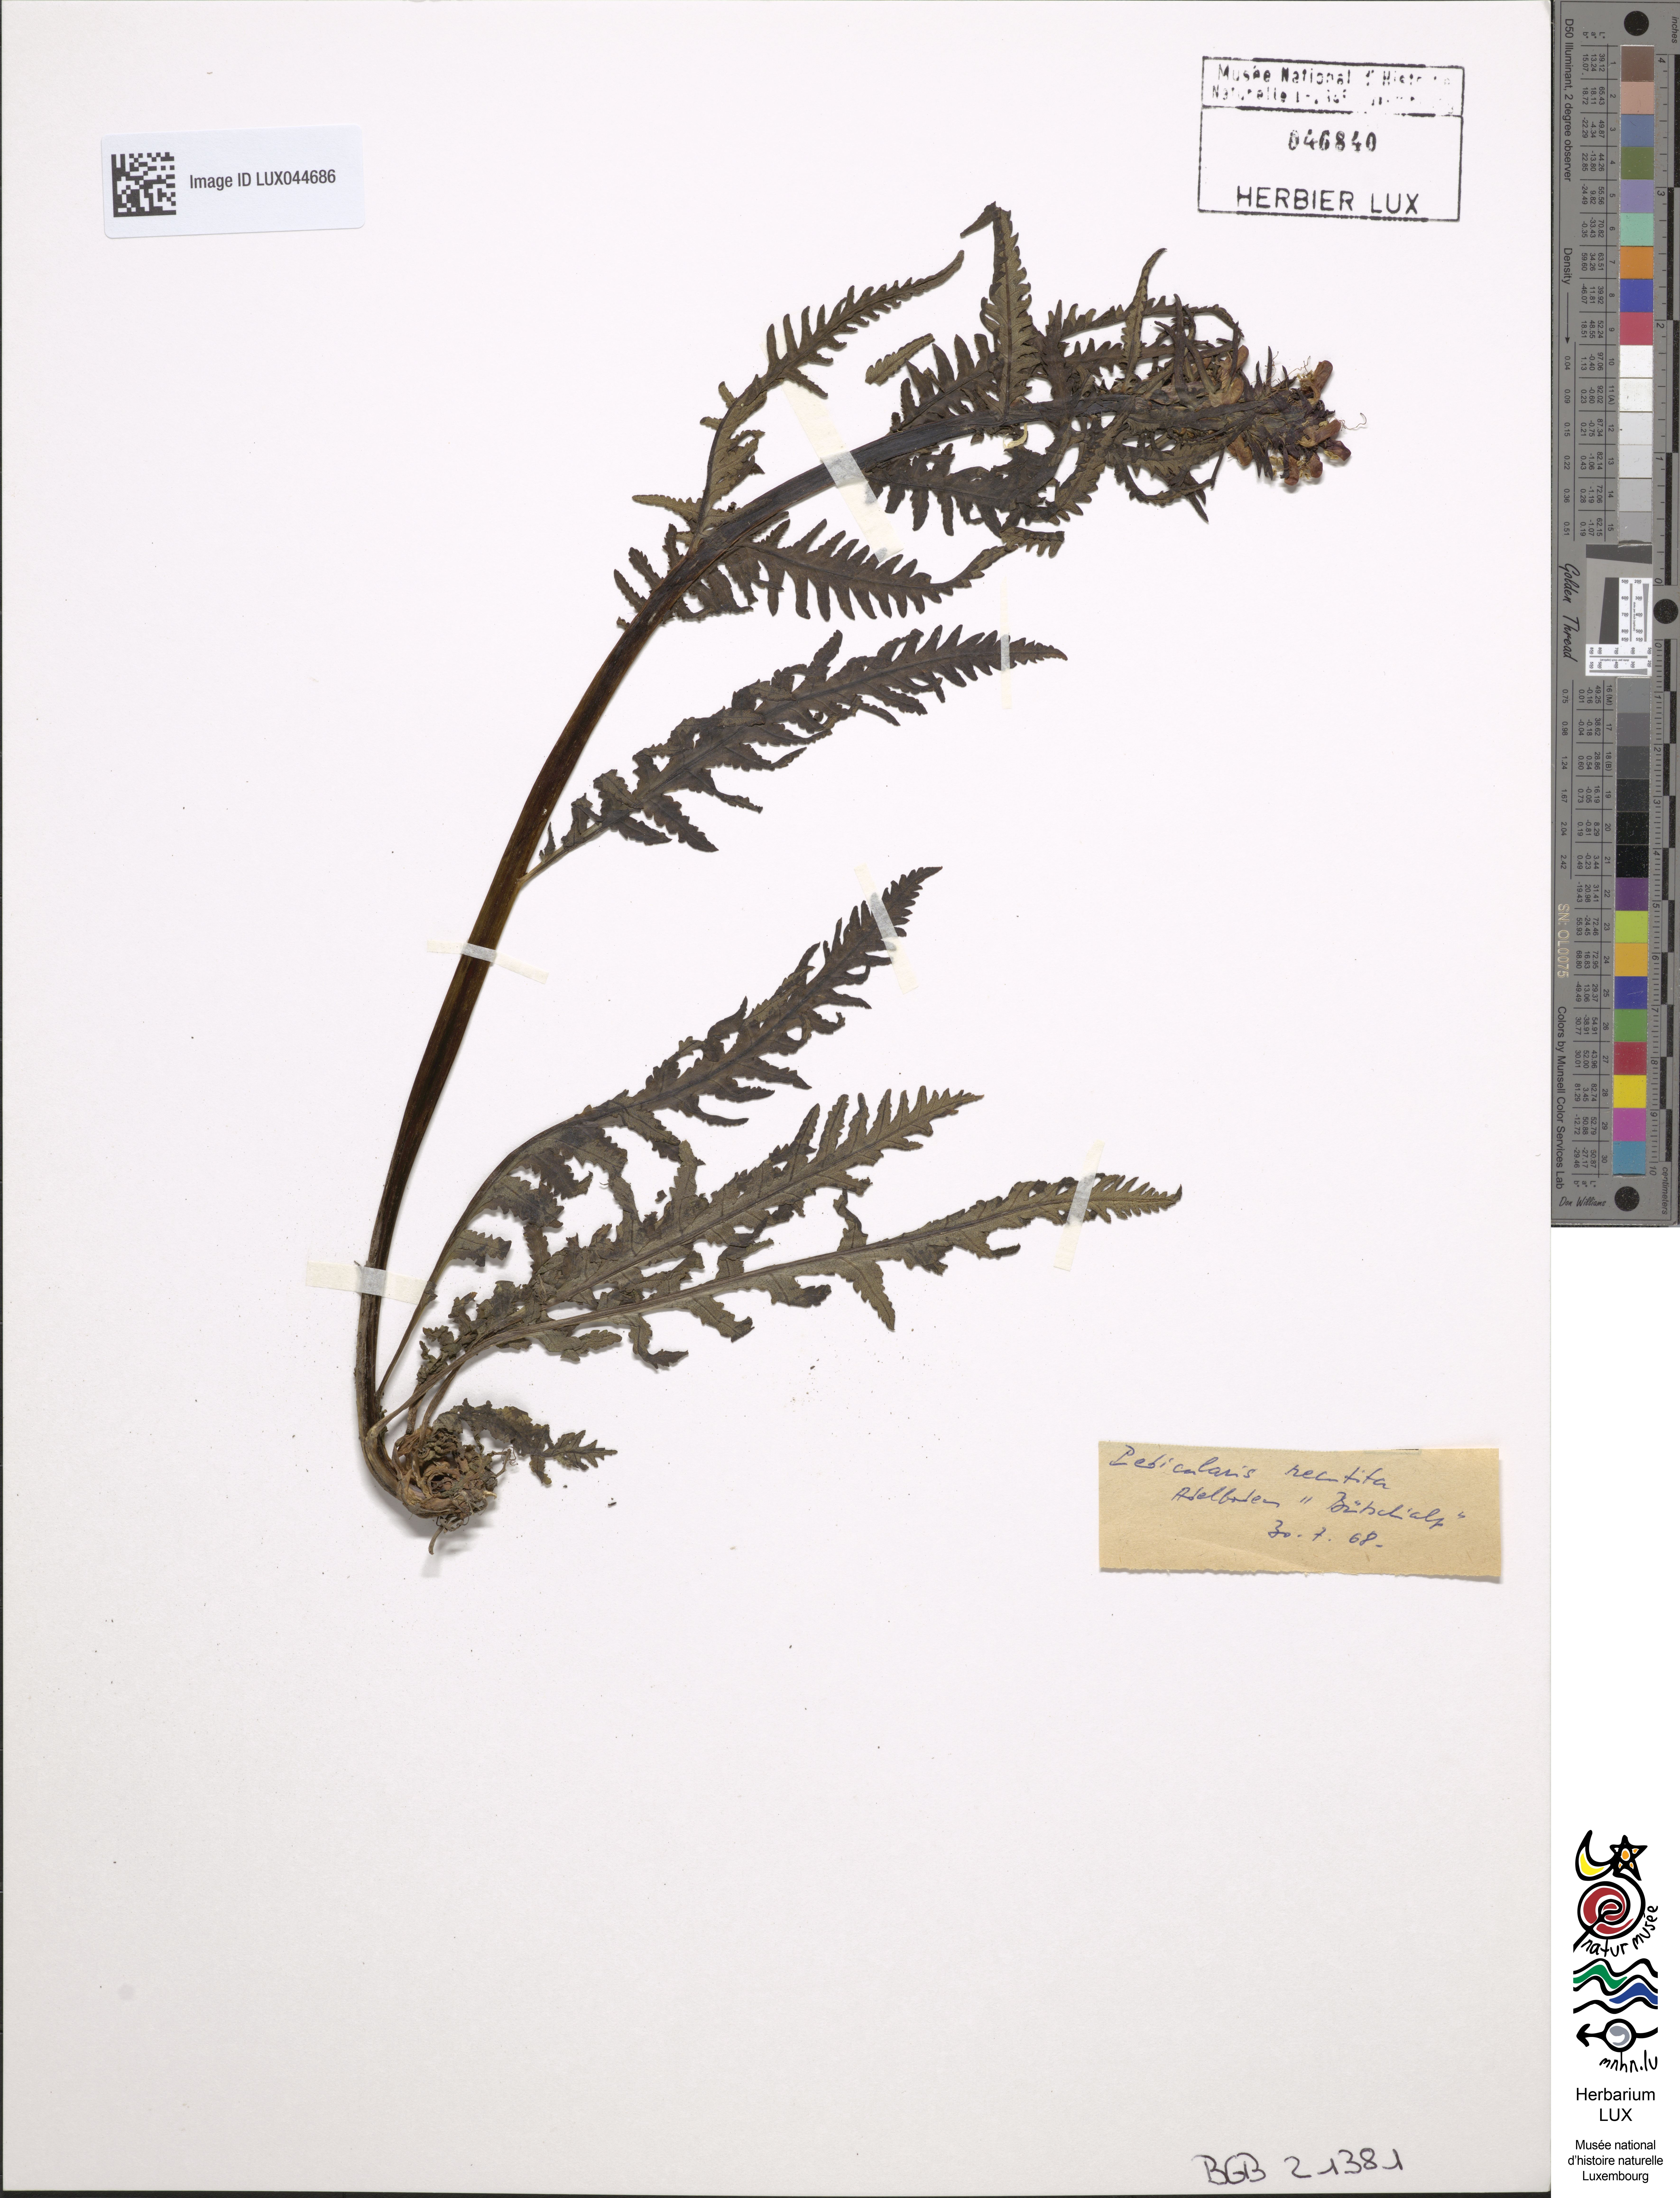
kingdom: Plantae
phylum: Tracheophyta
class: Magnoliopsida
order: Lamiales
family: Orobanchaceae
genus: Pedicularis
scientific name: Pedicularis recutita
